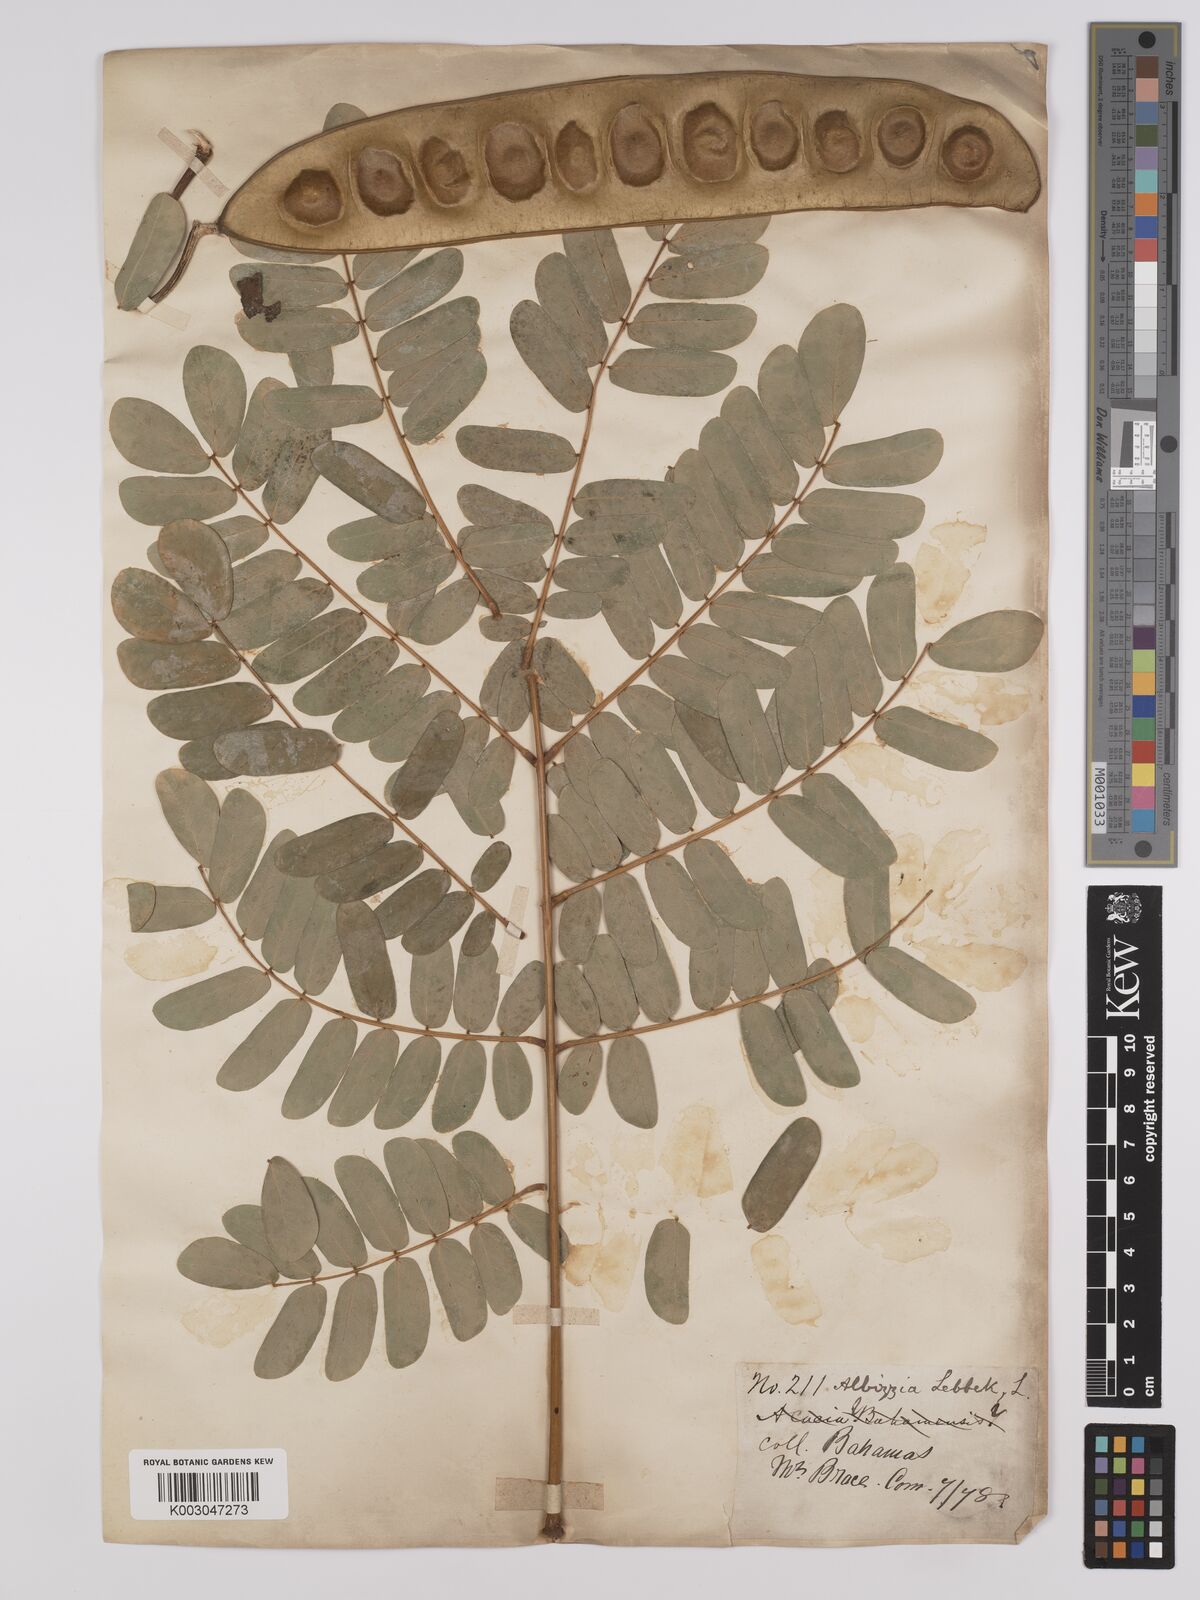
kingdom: Plantae
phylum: Tracheophyta
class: Magnoliopsida
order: Fabales
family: Fabaceae
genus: Albizia
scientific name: Albizia lebbeck
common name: Woman's tongue
